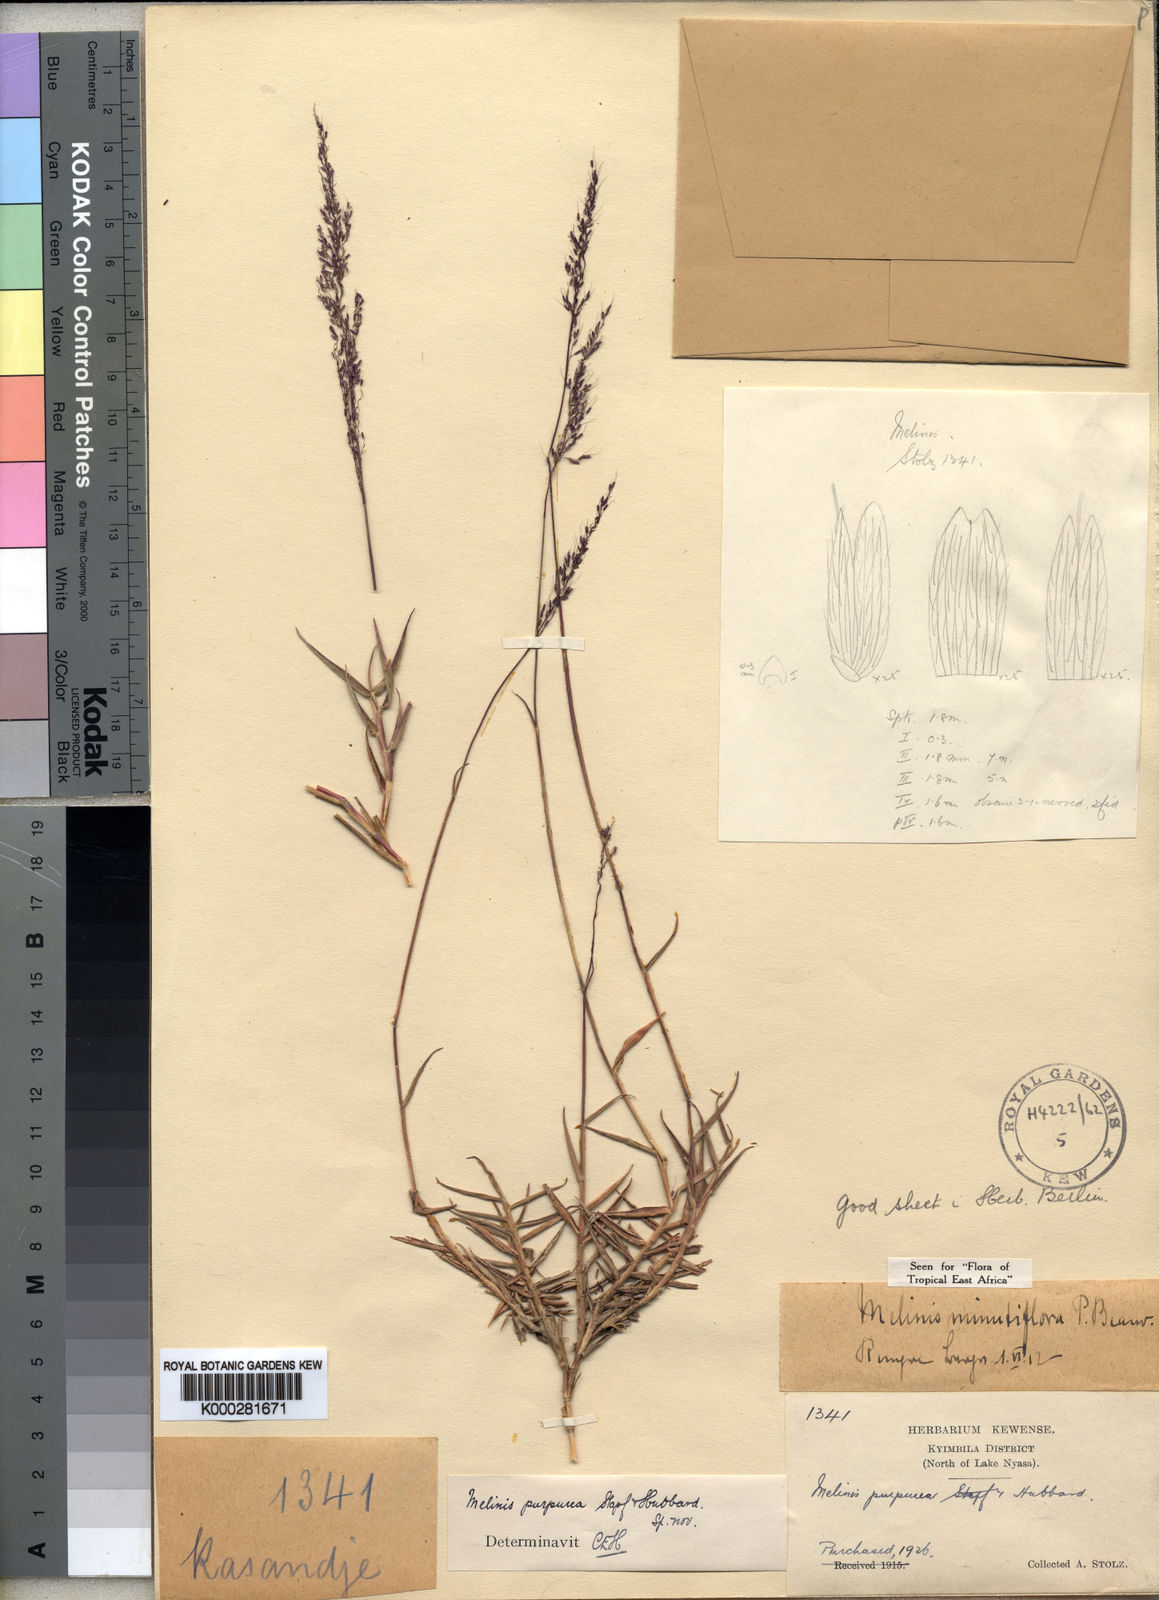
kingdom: Plantae
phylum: Tracheophyta
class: Liliopsida
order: Poales
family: Poaceae
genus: Melinis
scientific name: Melinis minutiflora
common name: Molassesgrass
